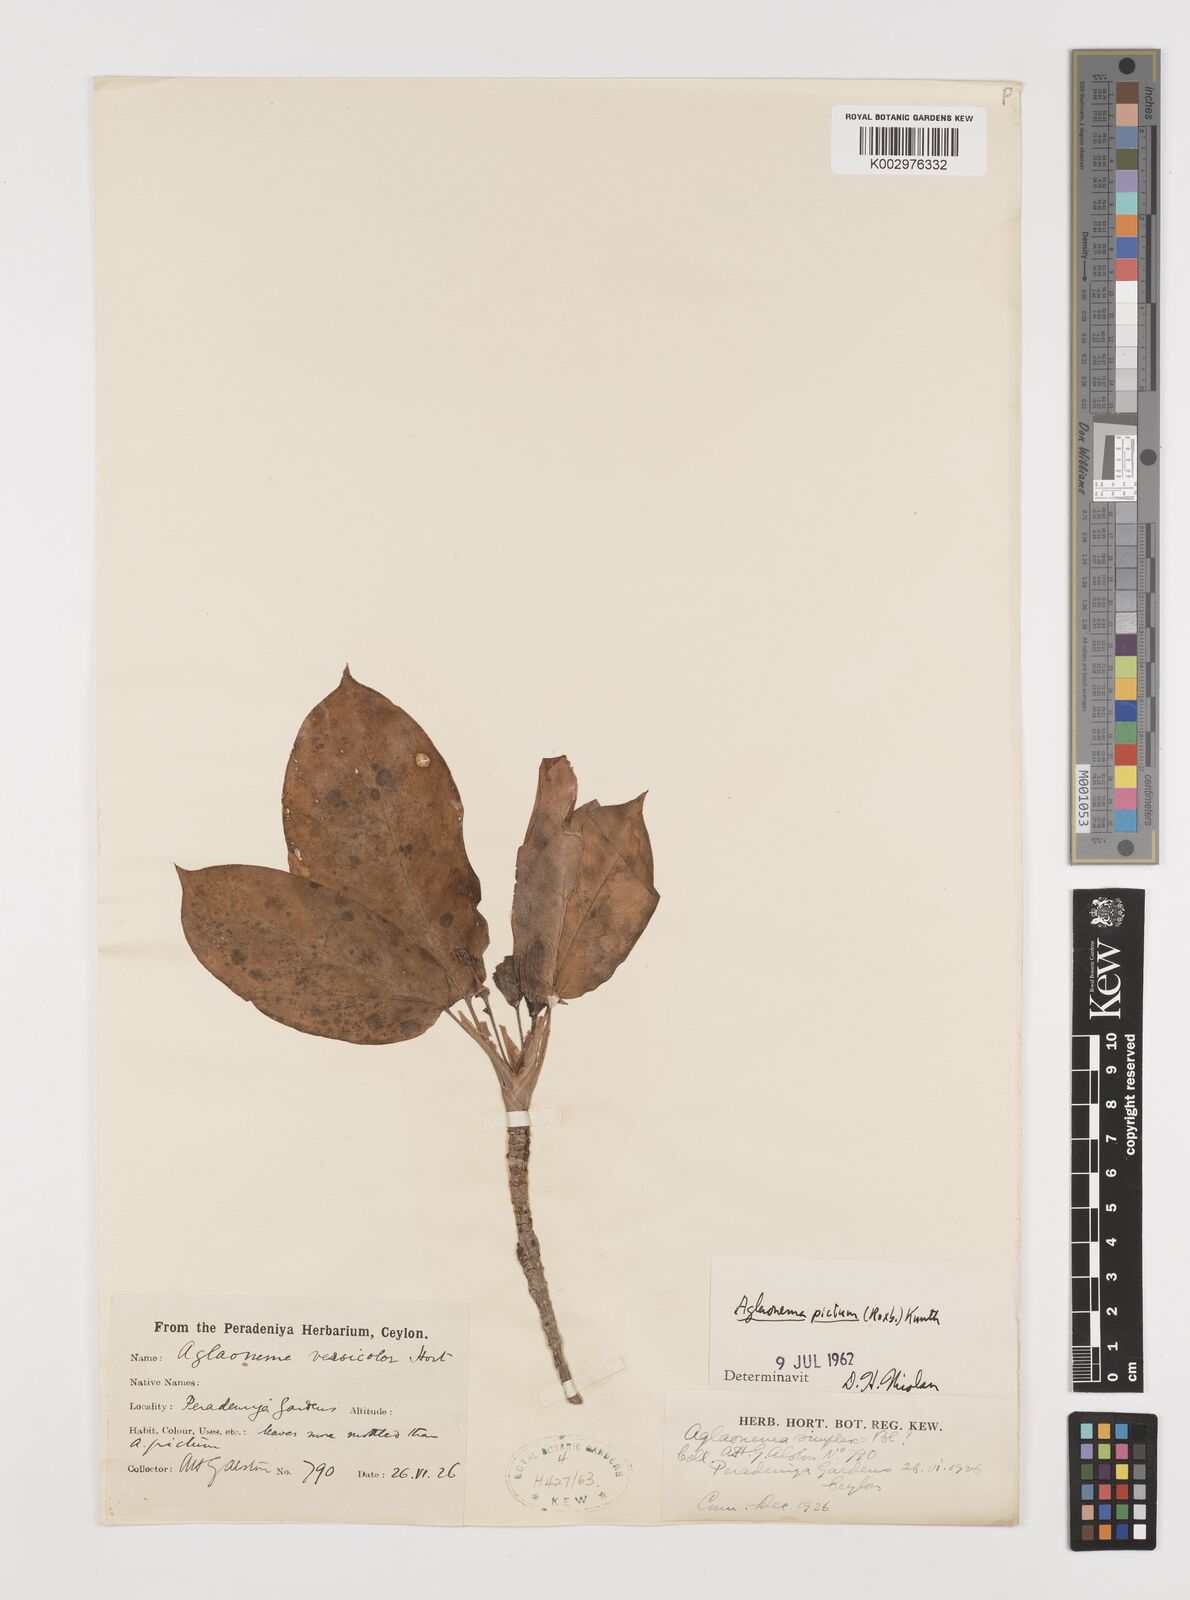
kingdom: Plantae
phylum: Tracheophyta
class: Liliopsida
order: Alismatales
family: Araceae
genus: Aglaonema
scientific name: Aglaonema pictum
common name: Aglaonema aroid
